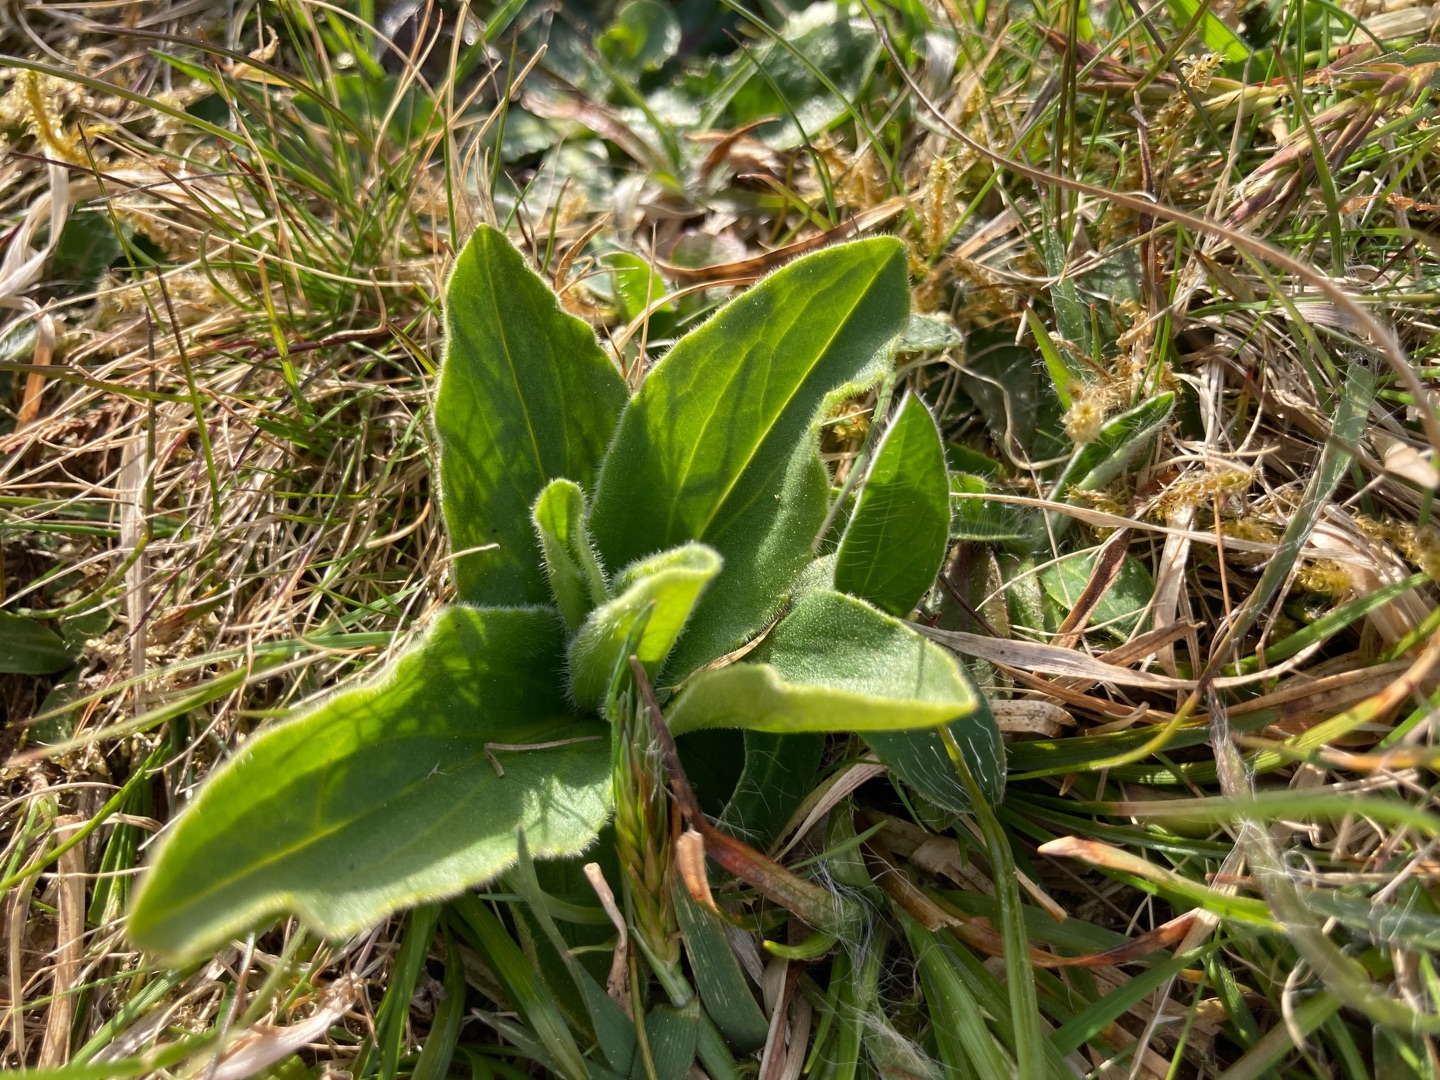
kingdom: Plantae
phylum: Tracheophyta
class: Magnoliopsida
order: Asterales
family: Asteraceae
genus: Arnica
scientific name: Arnica montana
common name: Guldblomme
